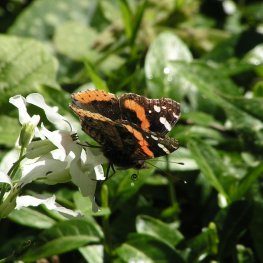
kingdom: Animalia
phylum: Arthropoda
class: Insecta
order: Lepidoptera
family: Nymphalidae
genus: Vanessa
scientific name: Vanessa atalanta
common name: Red Admiral
